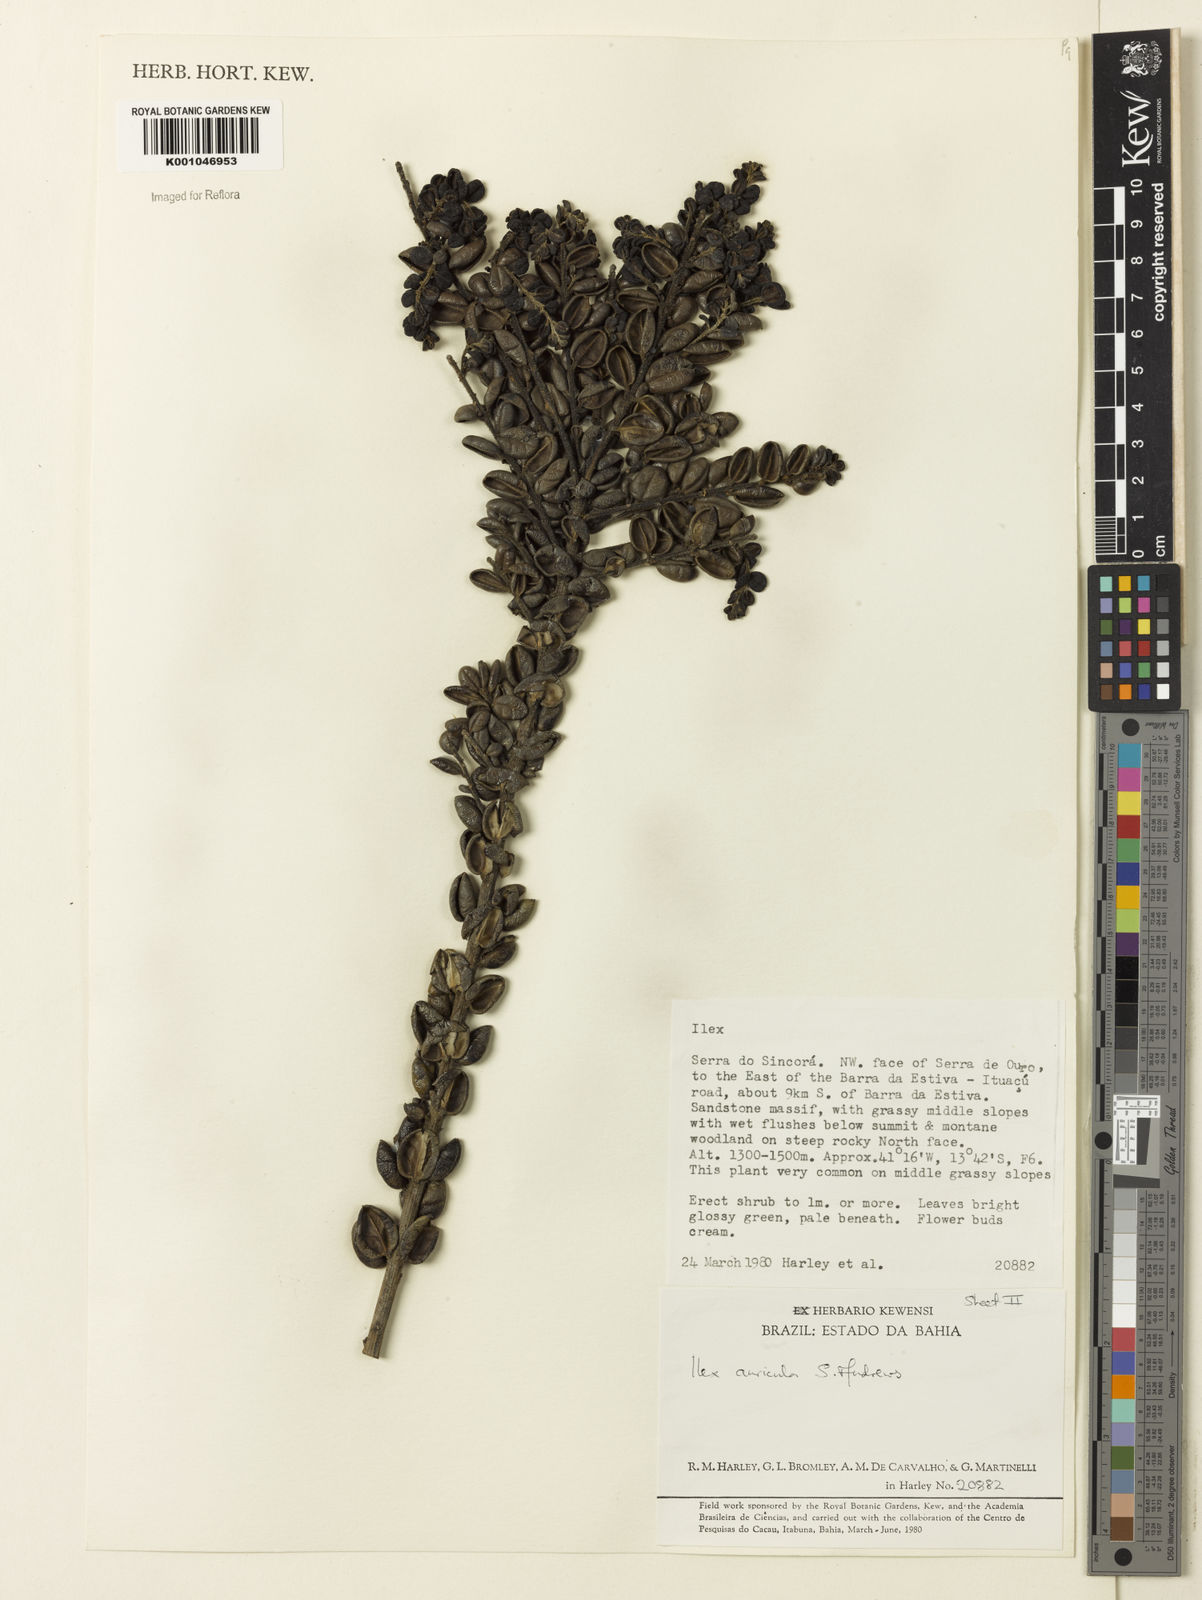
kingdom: Plantae
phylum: Tracheophyta
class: Magnoliopsida
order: Aquifoliales
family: Aquifoliaceae
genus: Ilex
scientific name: Ilex auricula
